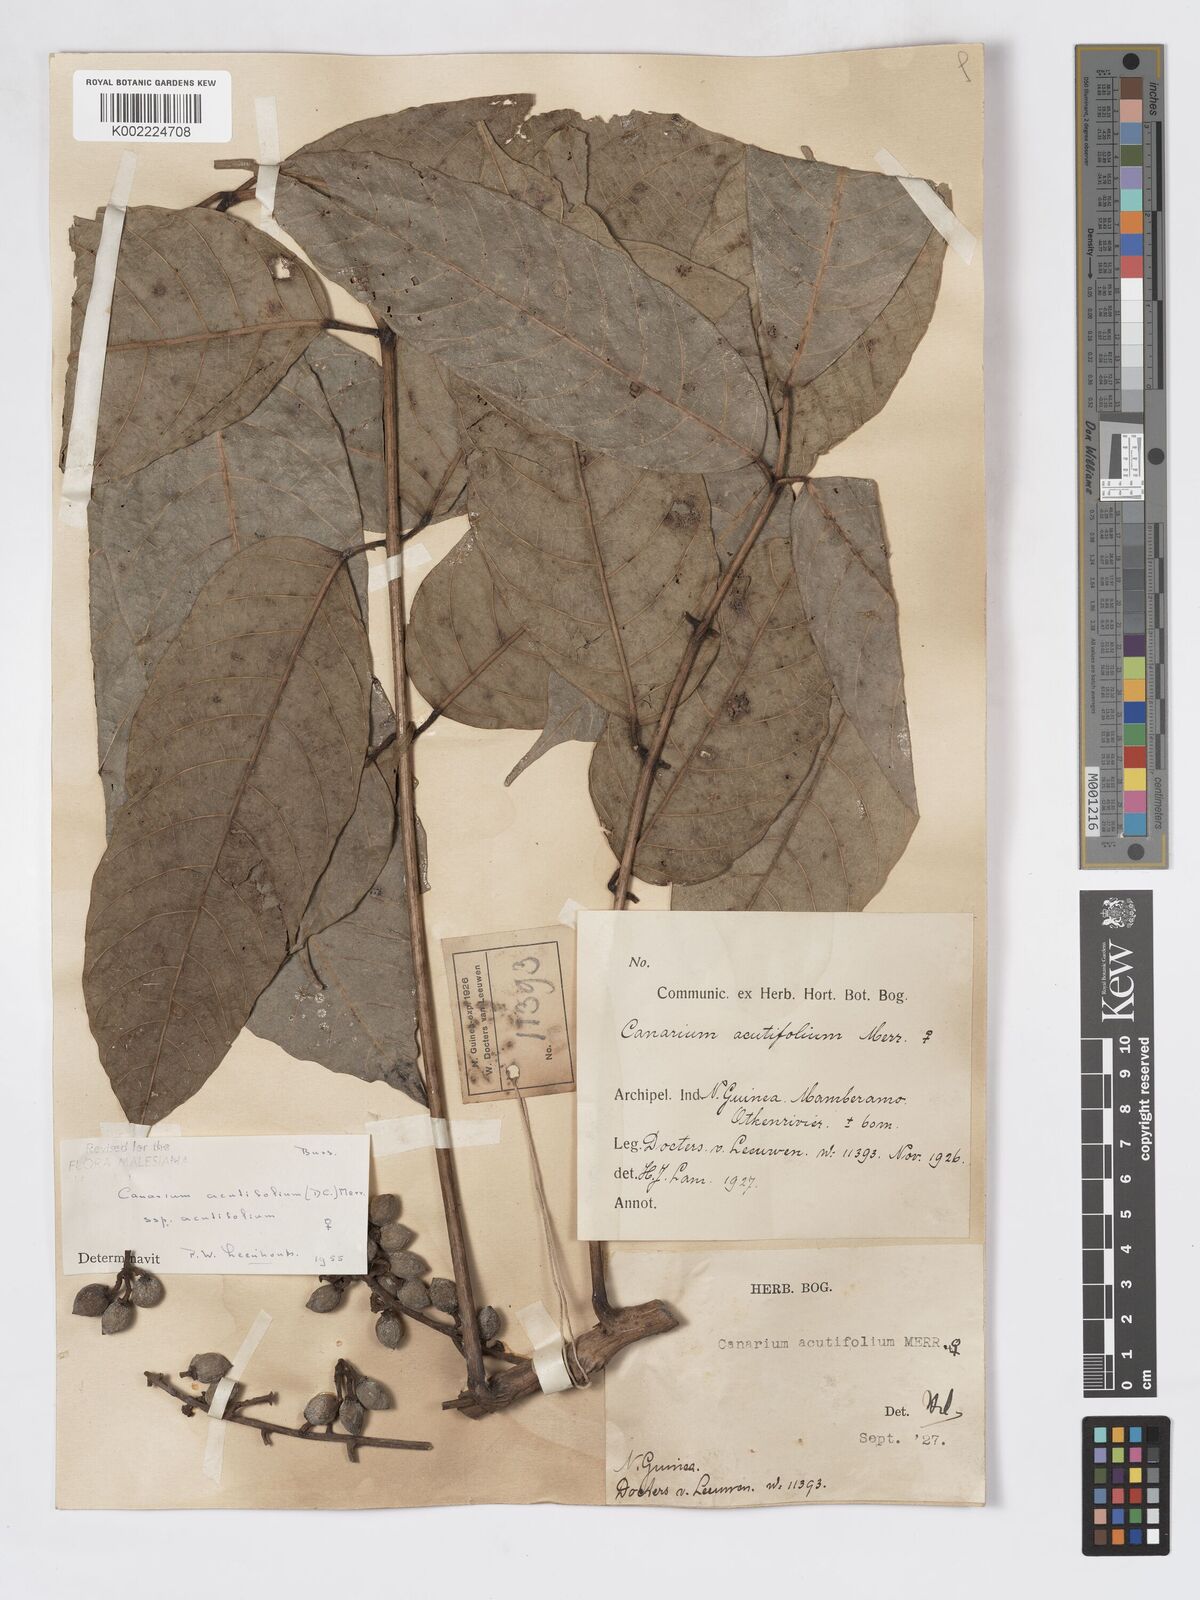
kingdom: Plantae
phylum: Tracheophyta
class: Magnoliopsida
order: Sapindales
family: Burseraceae
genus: Canarium
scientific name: Canarium acutifolium
